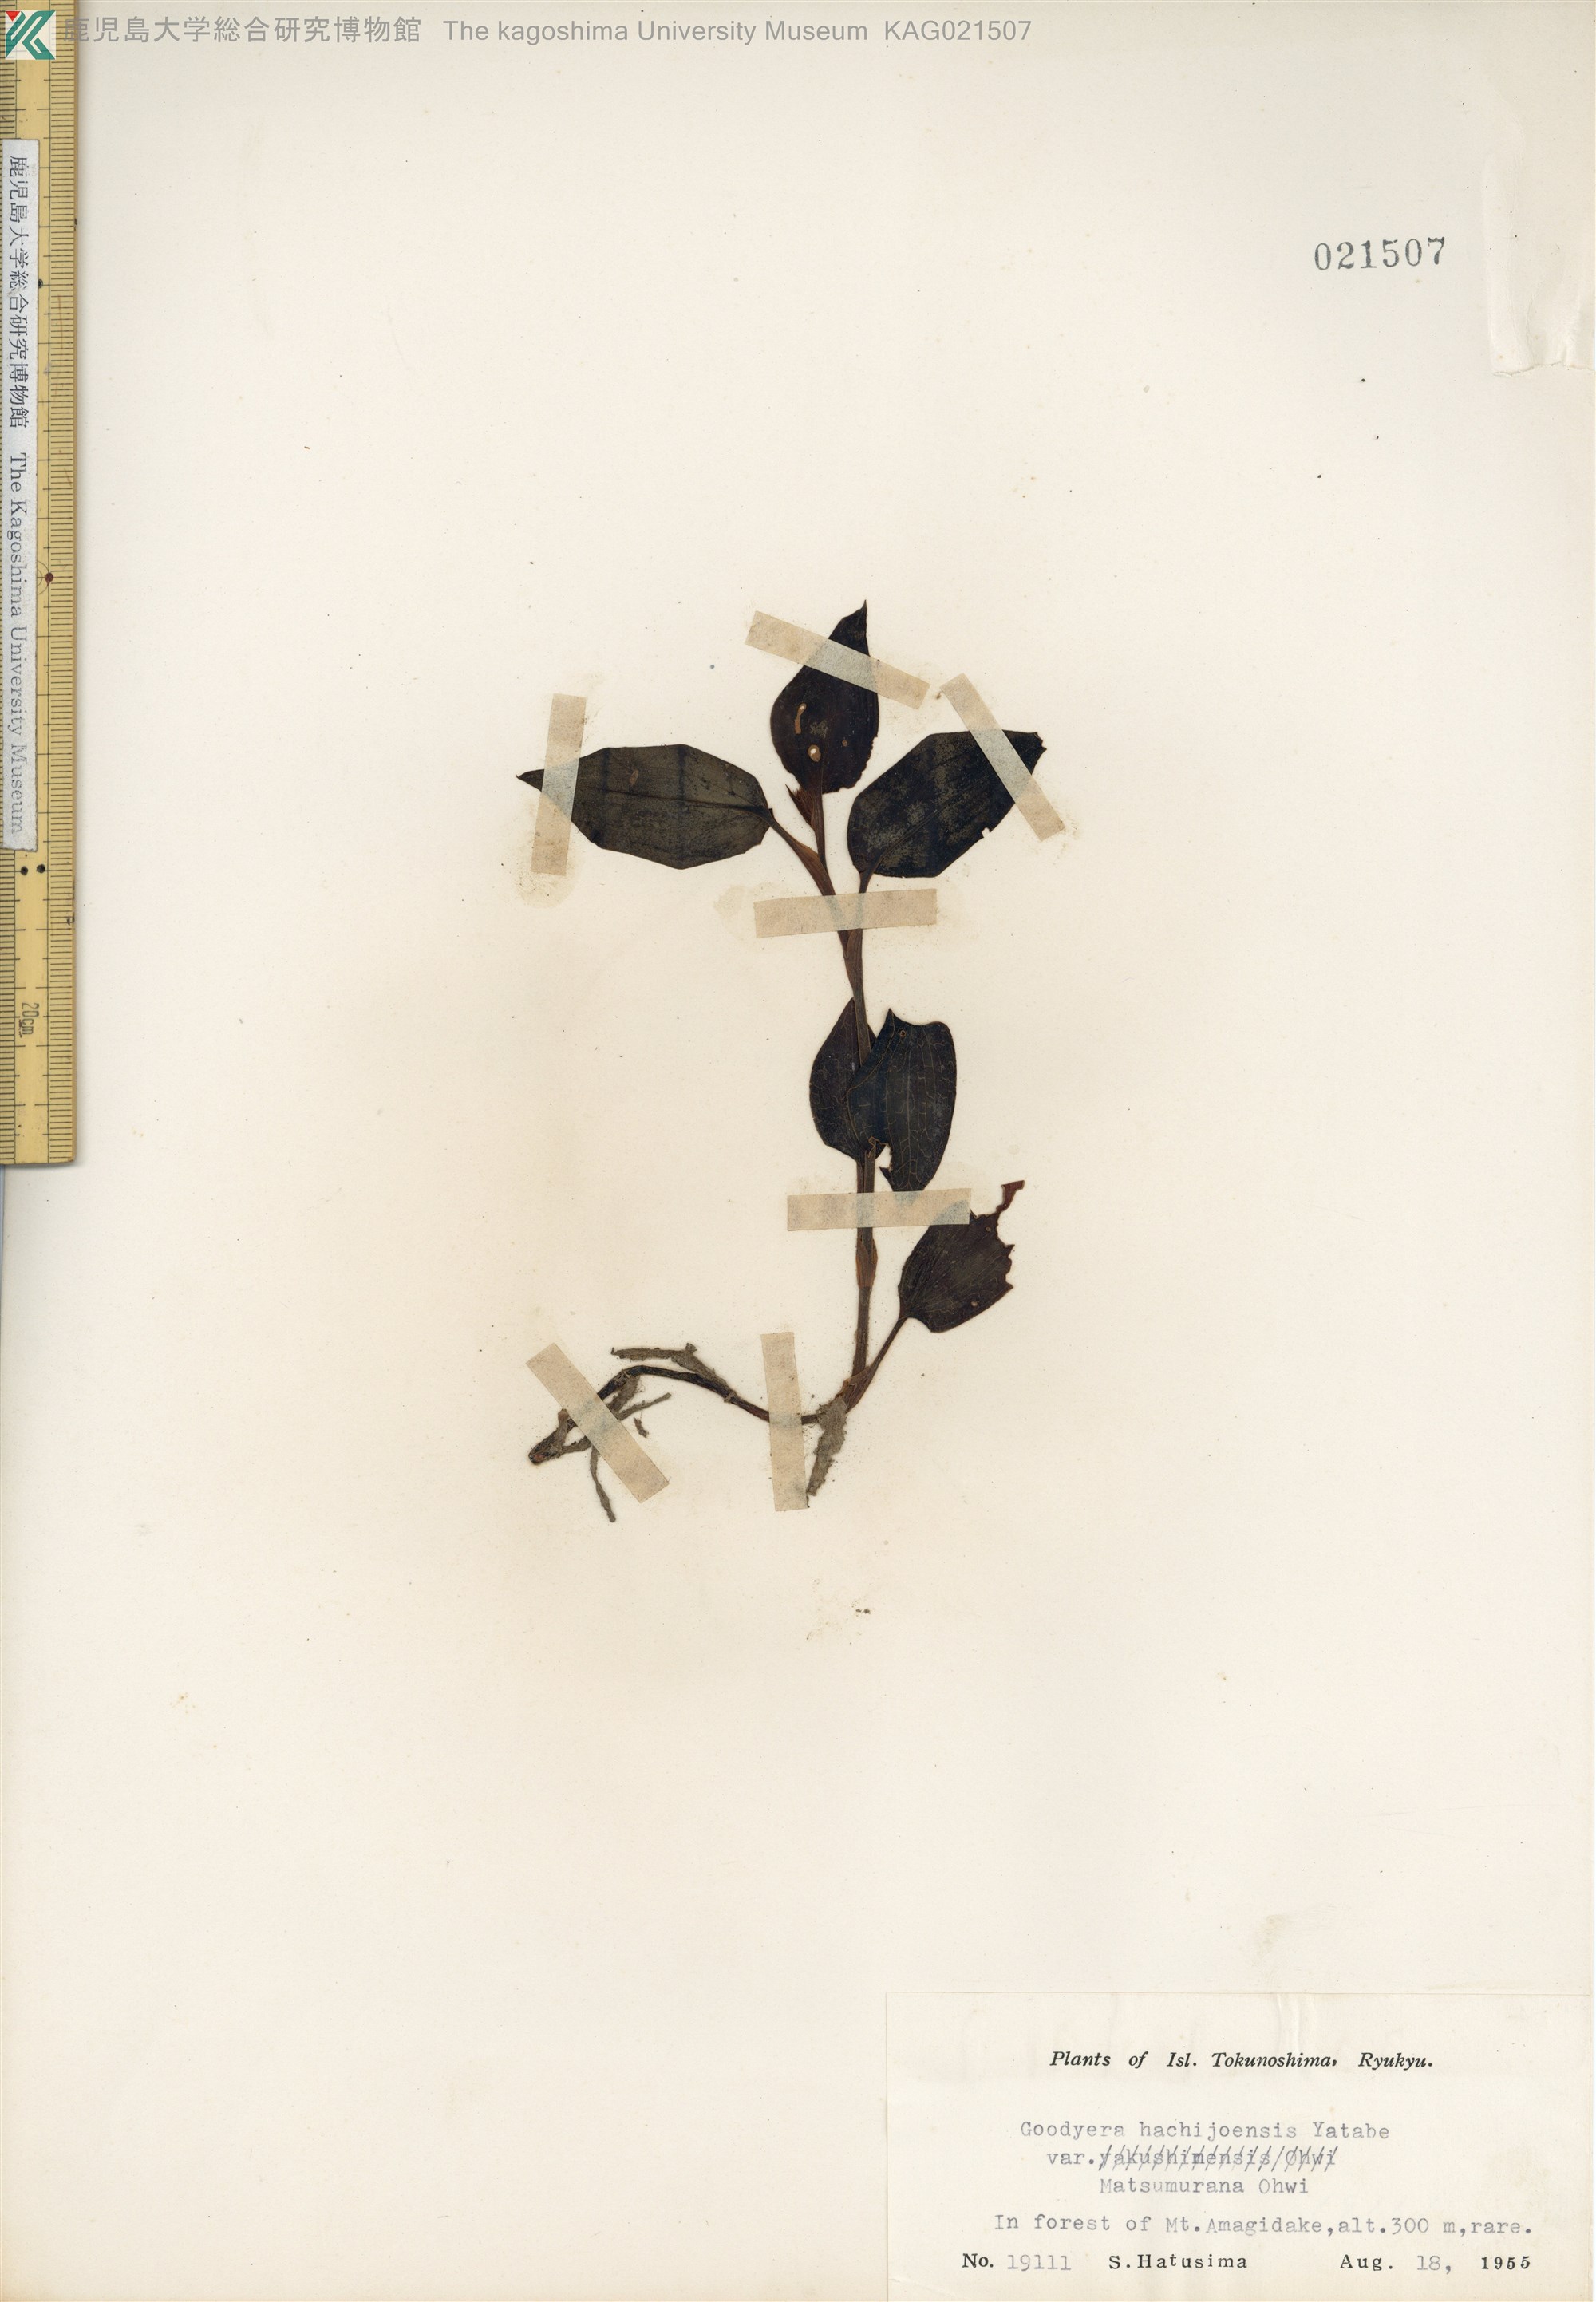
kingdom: Plantae
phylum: Tracheophyta
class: Liliopsida
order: Asparagales
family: Orchidaceae
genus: Goodyera
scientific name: Goodyera hachijoensis
